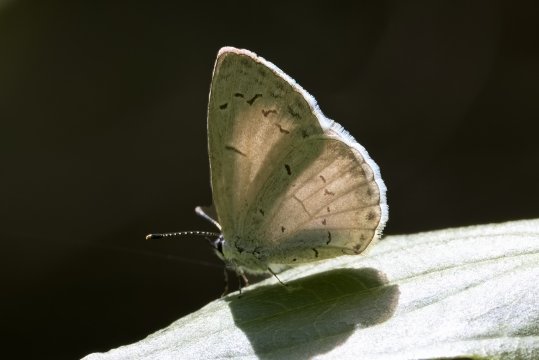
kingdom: Animalia
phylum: Arthropoda
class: Insecta
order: Lepidoptera
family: Lycaenidae
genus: Cyaniris
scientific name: Cyaniris neglecta
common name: Summer Azure
